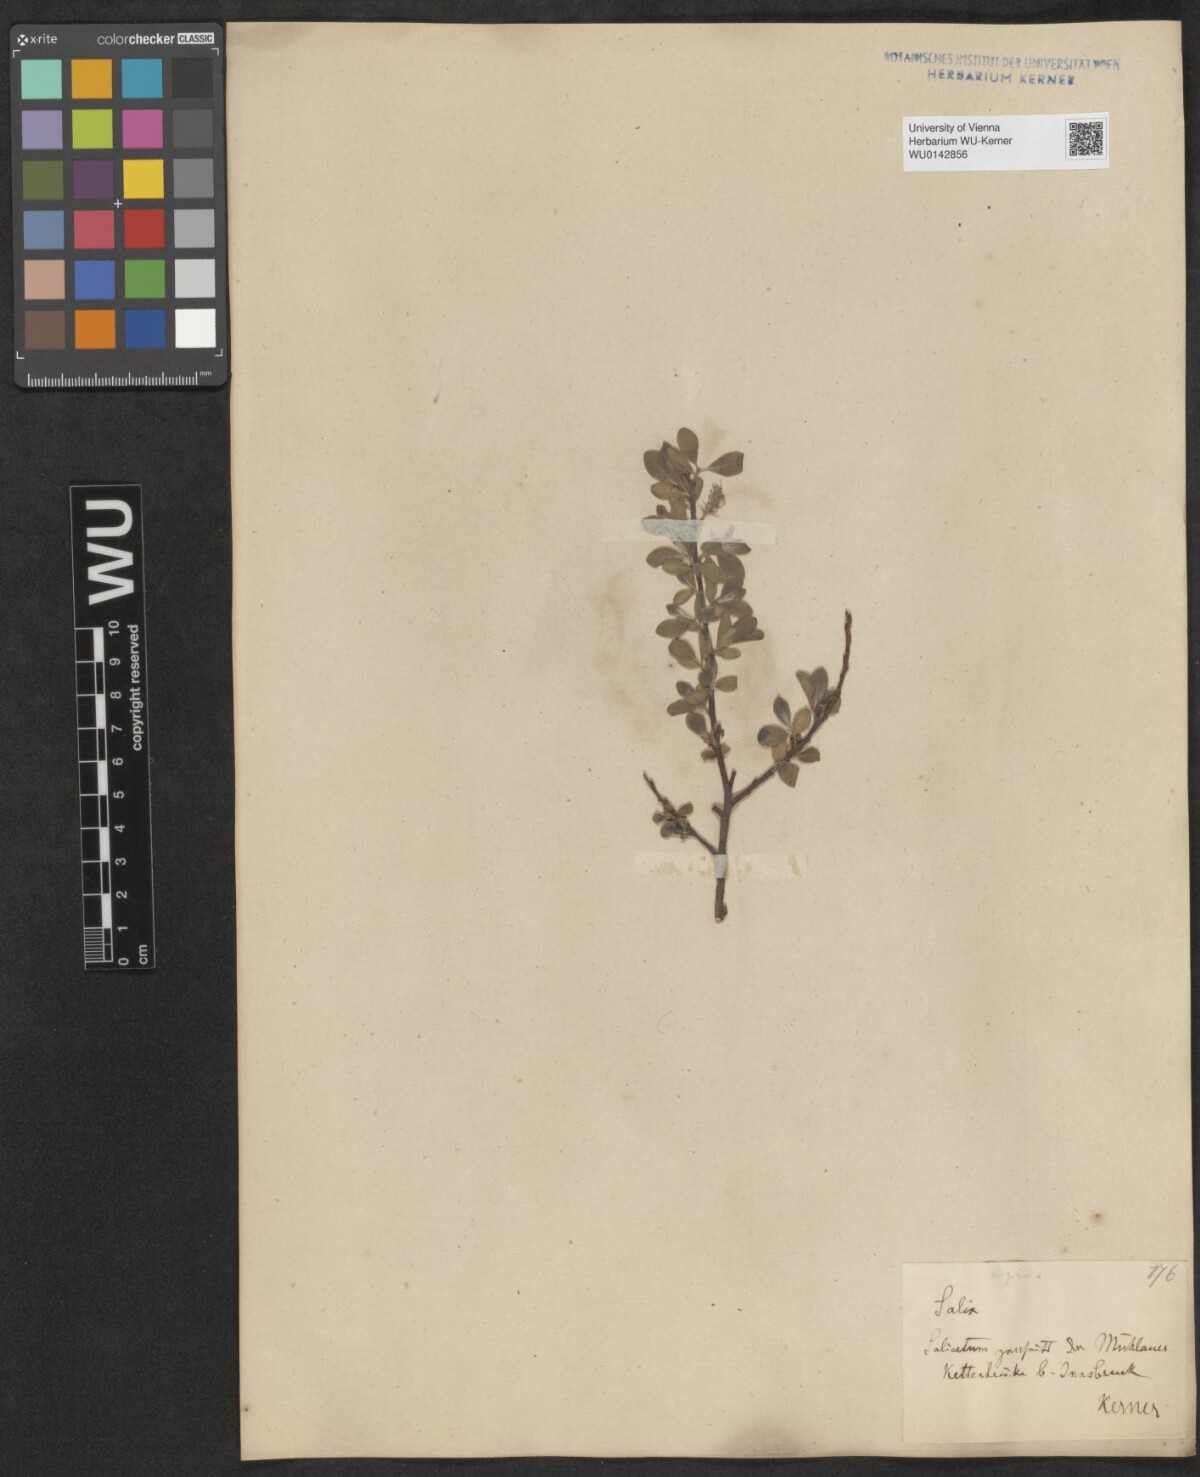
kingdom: Plantae
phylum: Tracheophyta
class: Magnoliopsida
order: Malpighiales
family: Salicaceae
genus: Salix
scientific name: Salix myrsinifolia
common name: Dark-leaved willow
